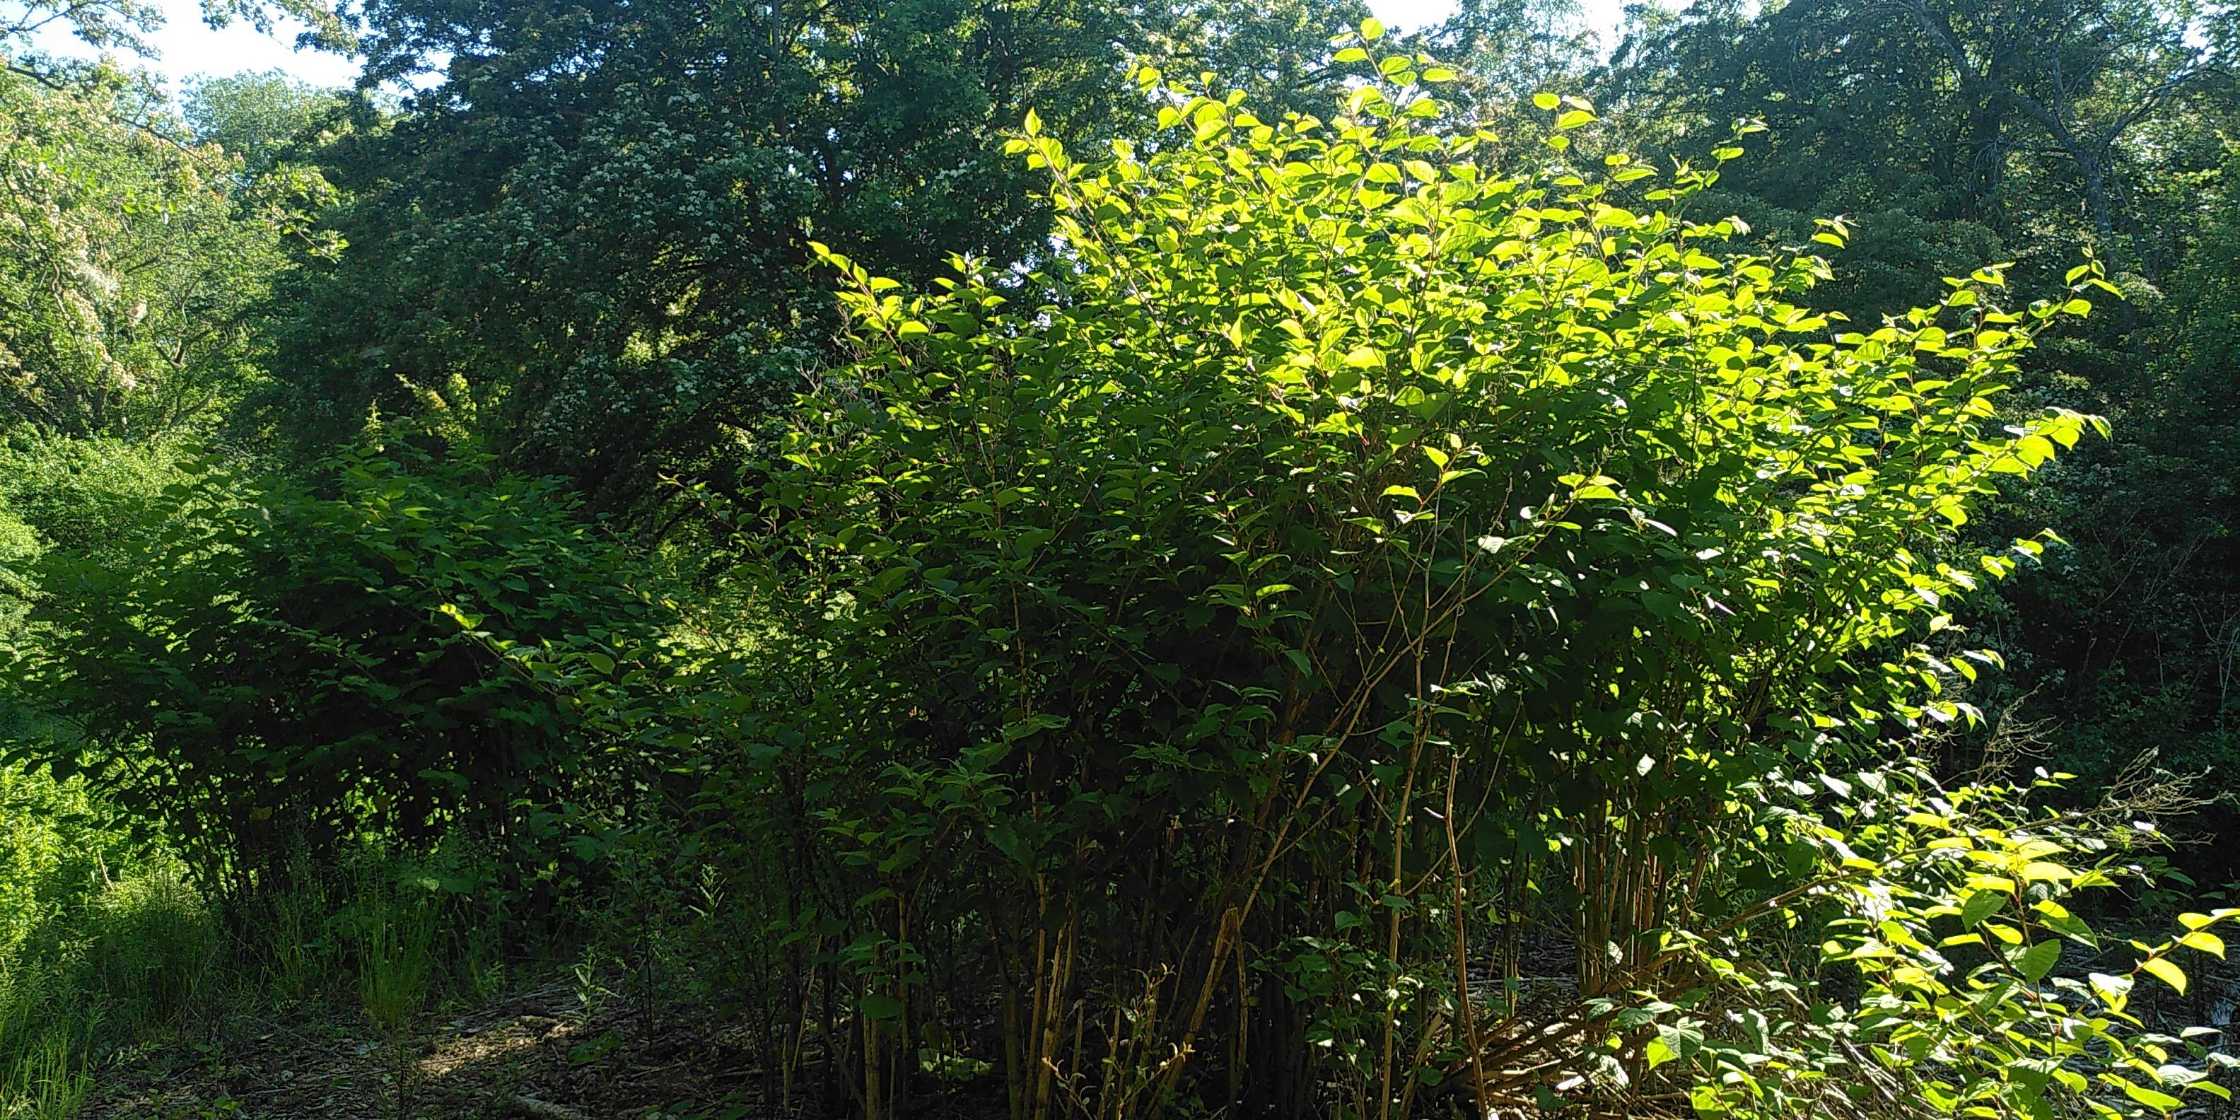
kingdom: Plantae
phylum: Tracheophyta
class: Magnoliopsida
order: Caryophyllales
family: Polygonaceae
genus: Reynoutria
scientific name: Reynoutria japonica
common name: Japan-pileurt
